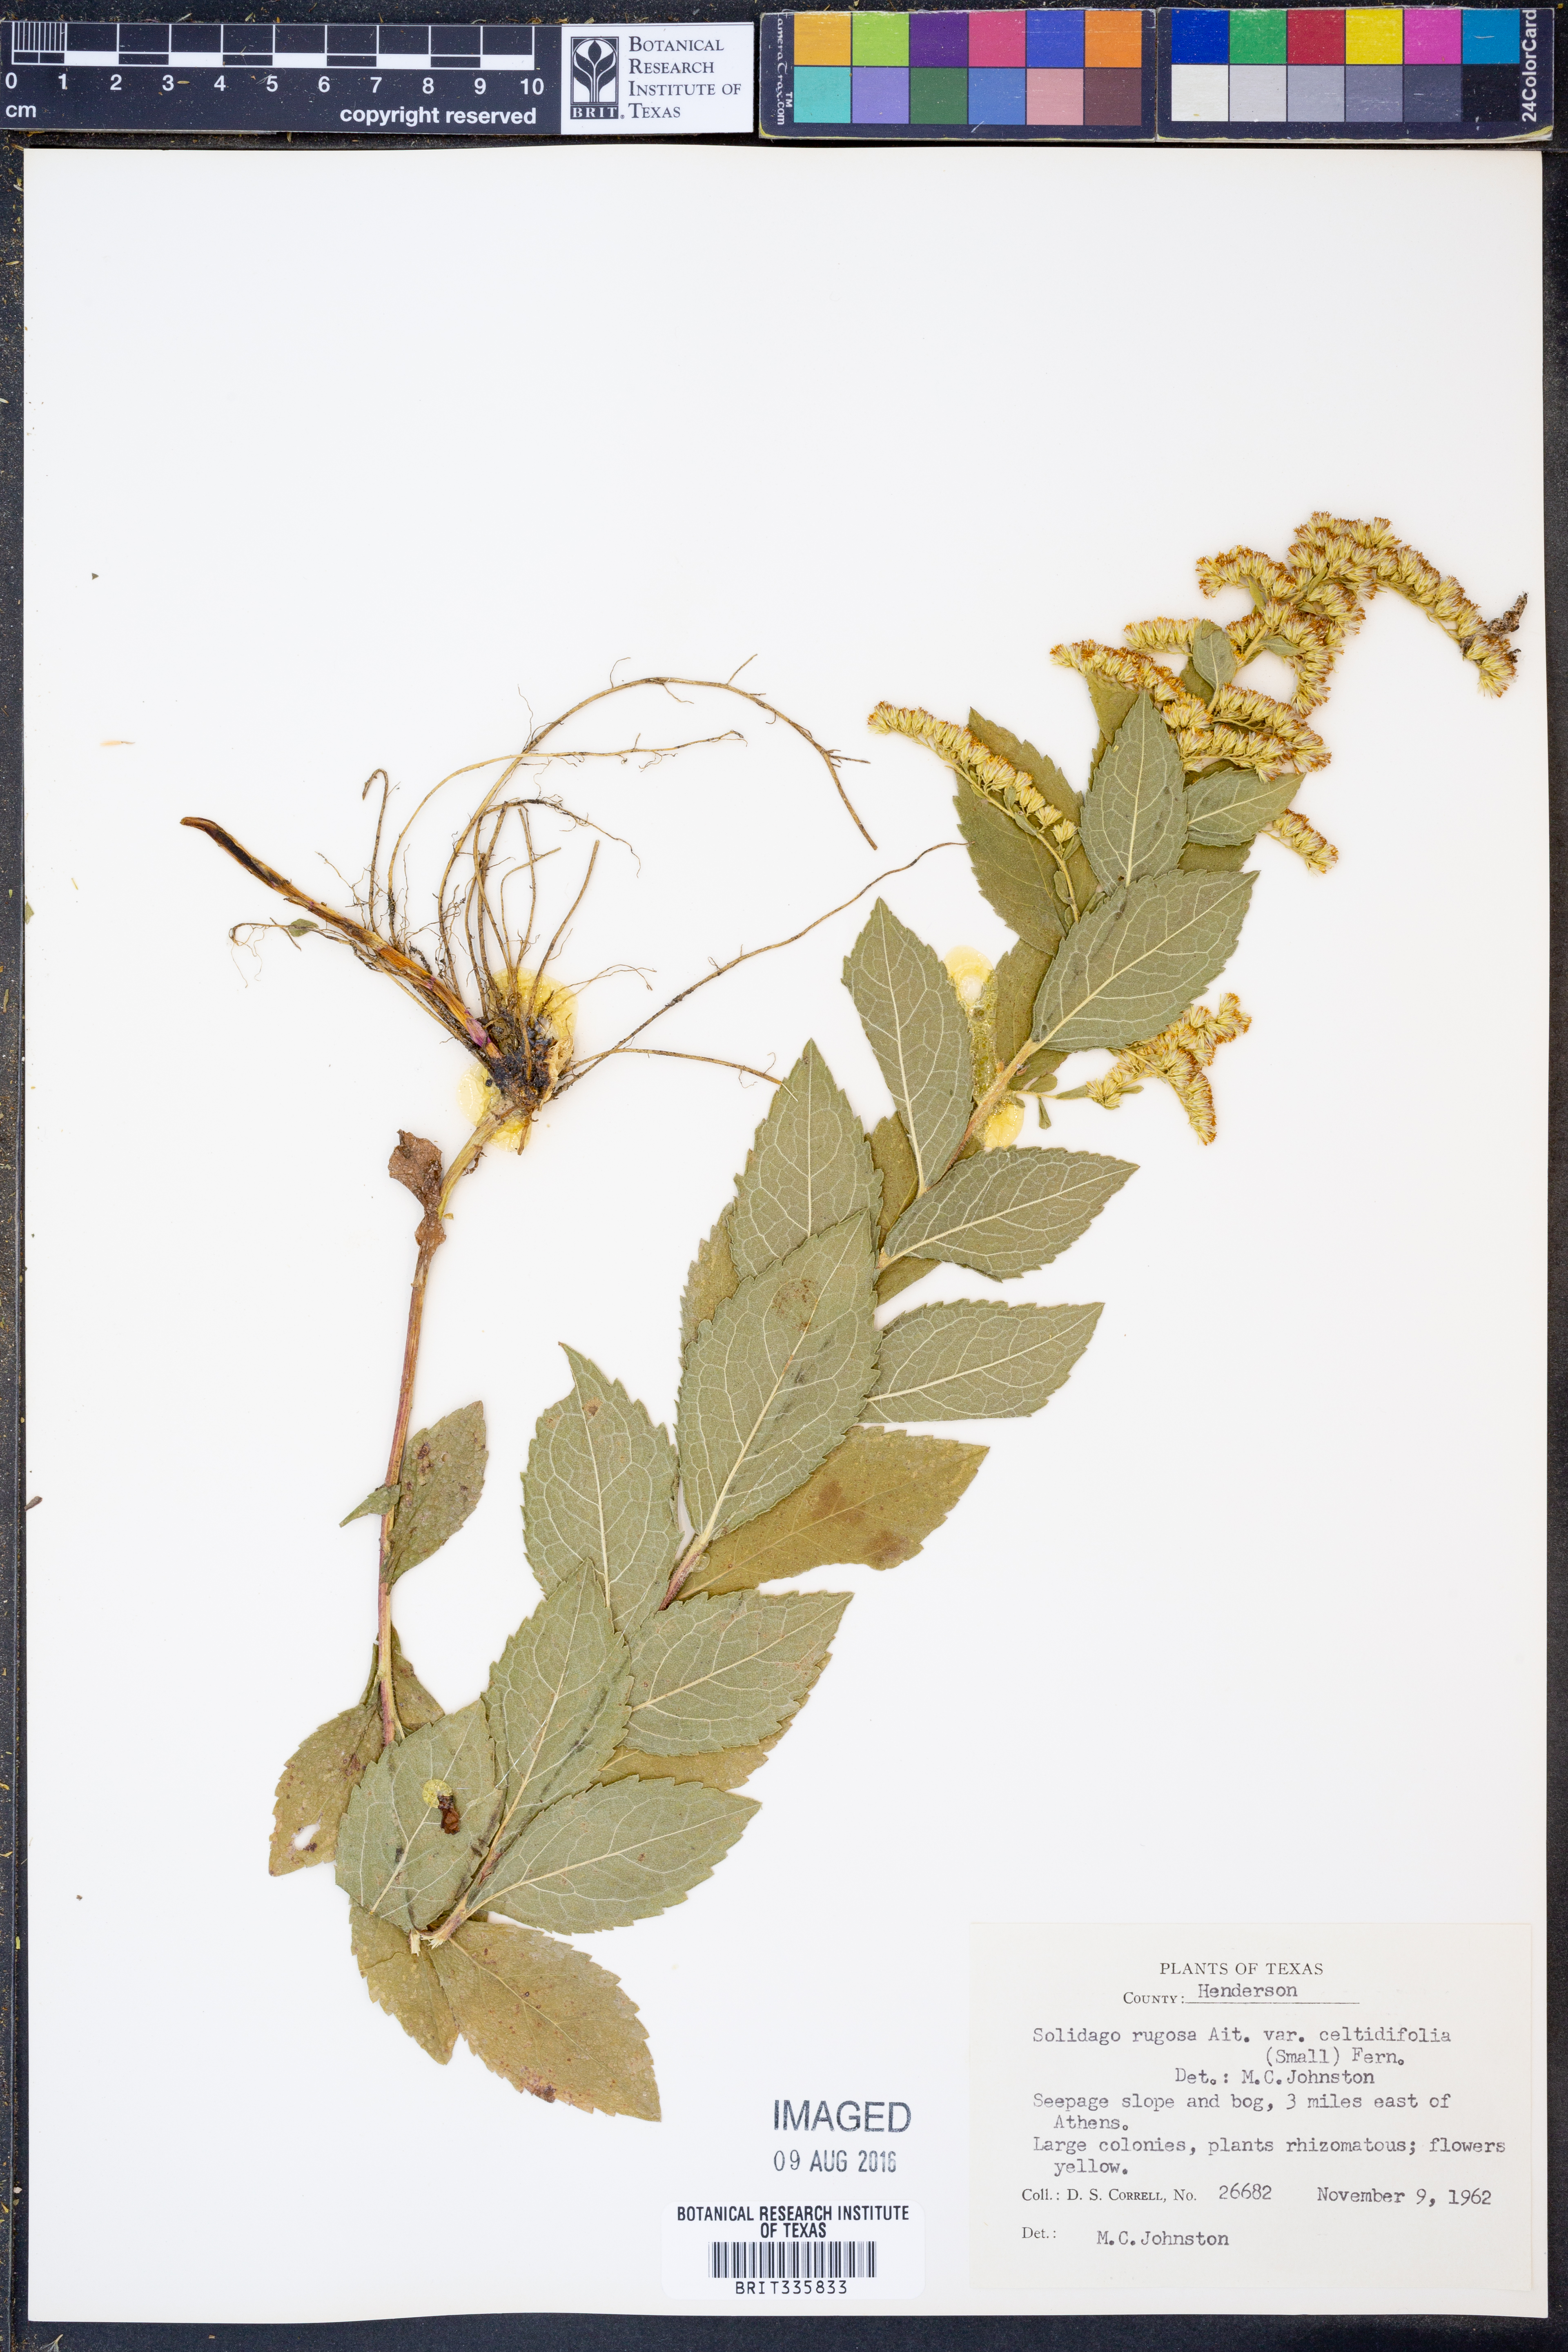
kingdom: Plantae
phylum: Tracheophyta
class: Magnoliopsida
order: Asterales
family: Asteraceae
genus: Solidago
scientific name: Solidago rugosa
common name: Rough-stemmed goldenrod
